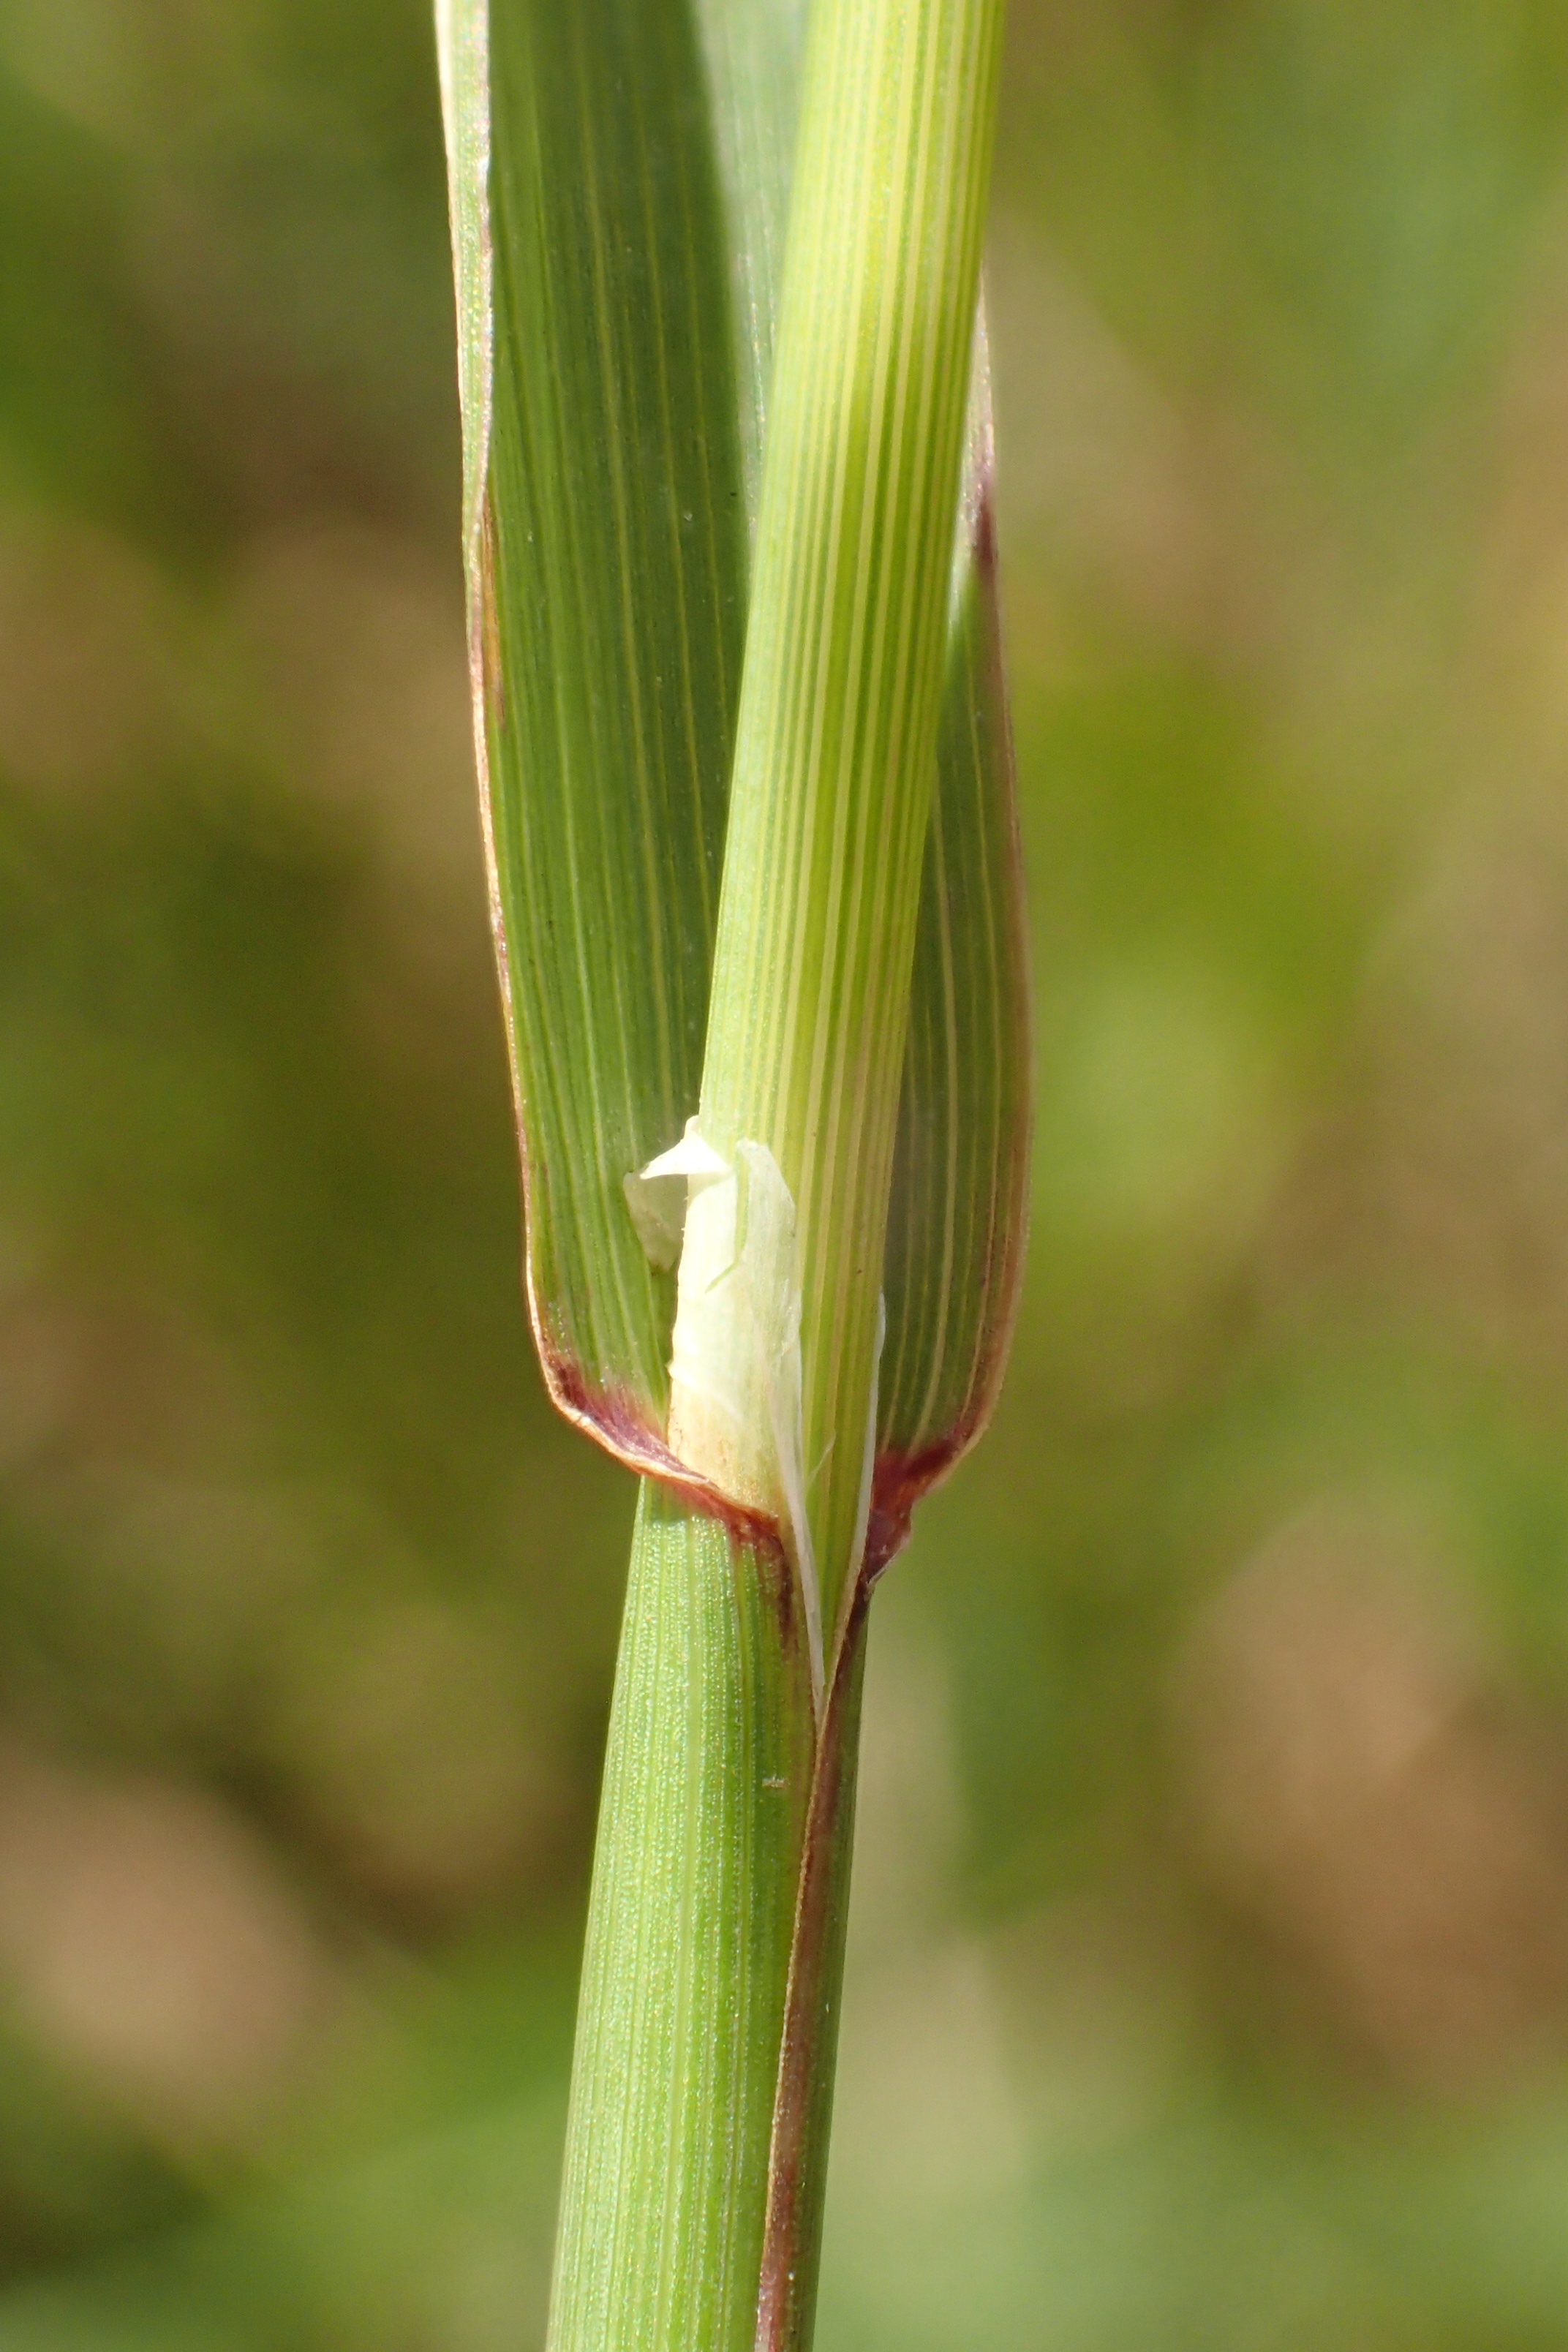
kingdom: Plantae
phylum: Tracheophyta
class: Liliopsida
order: Poales
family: Poaceae
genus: Phleum
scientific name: Phleum pratense
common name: Knold-rottehale
